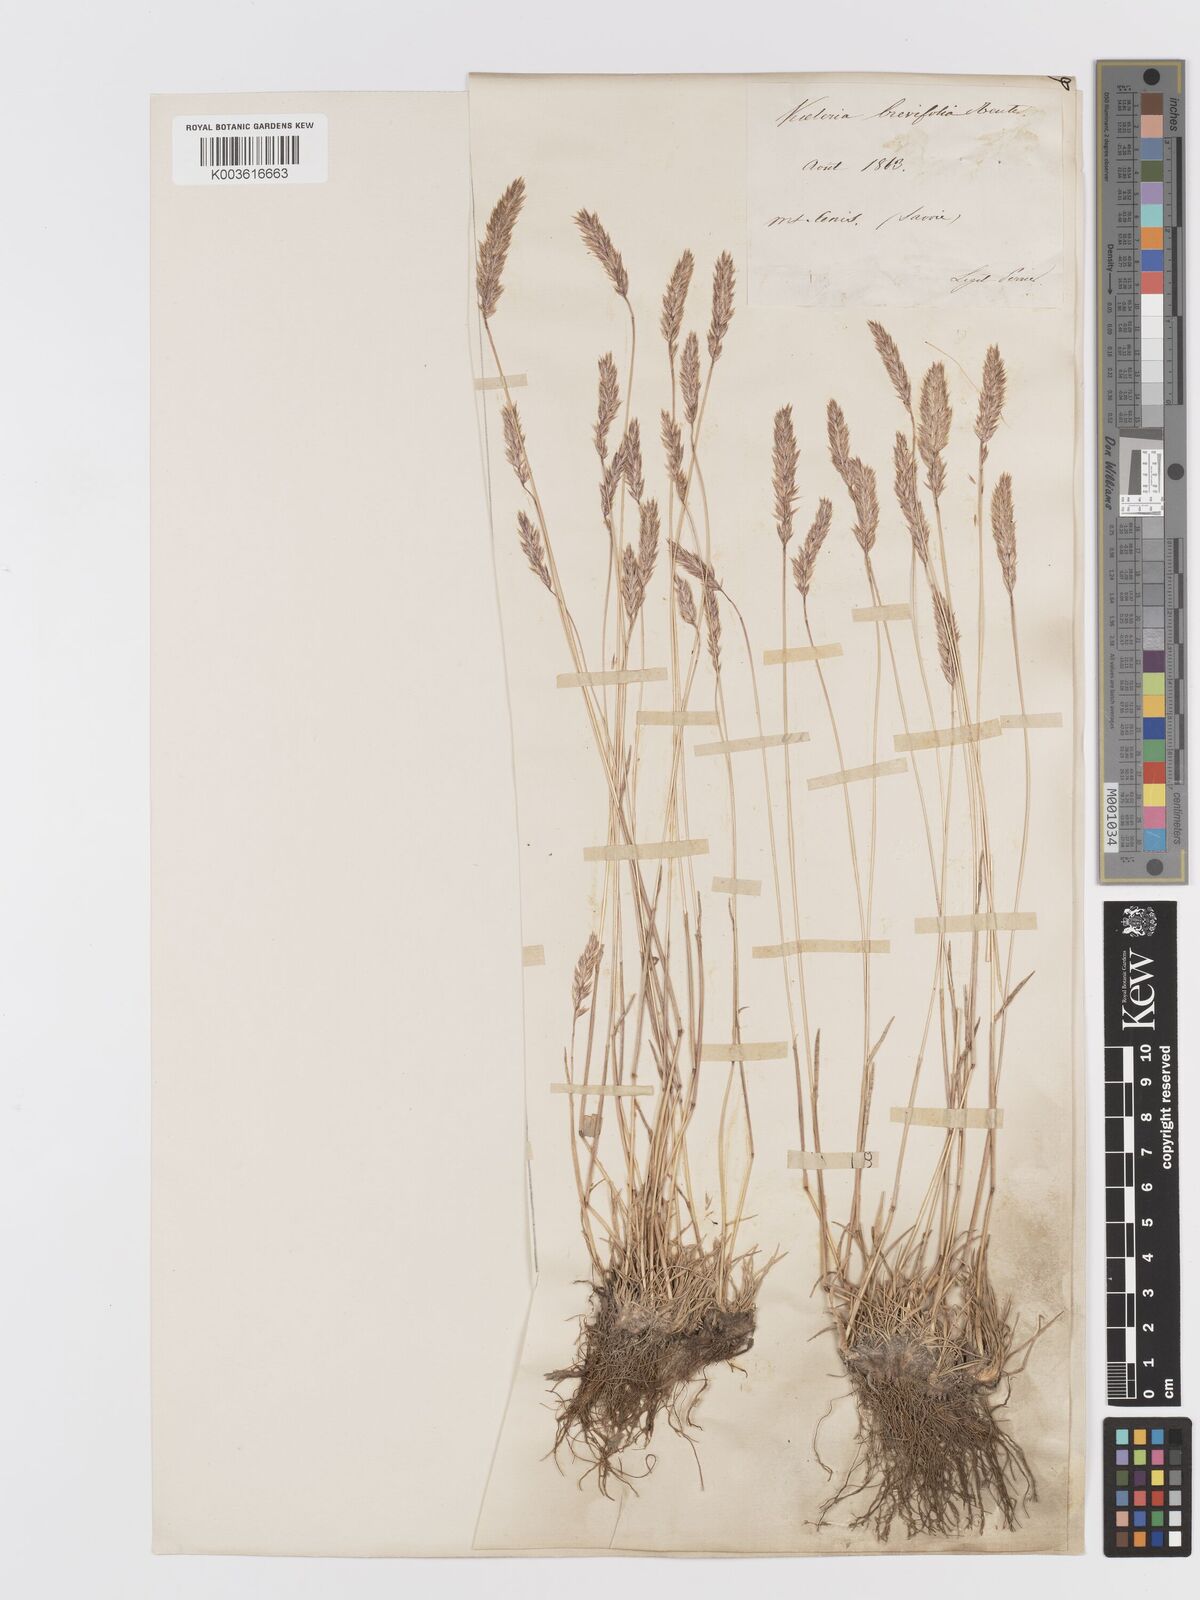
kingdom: Plantae
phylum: Tracheophyta
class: Liliopsida
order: Poales
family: Poaceae
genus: Koeleria
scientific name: Koeleria cenisia
